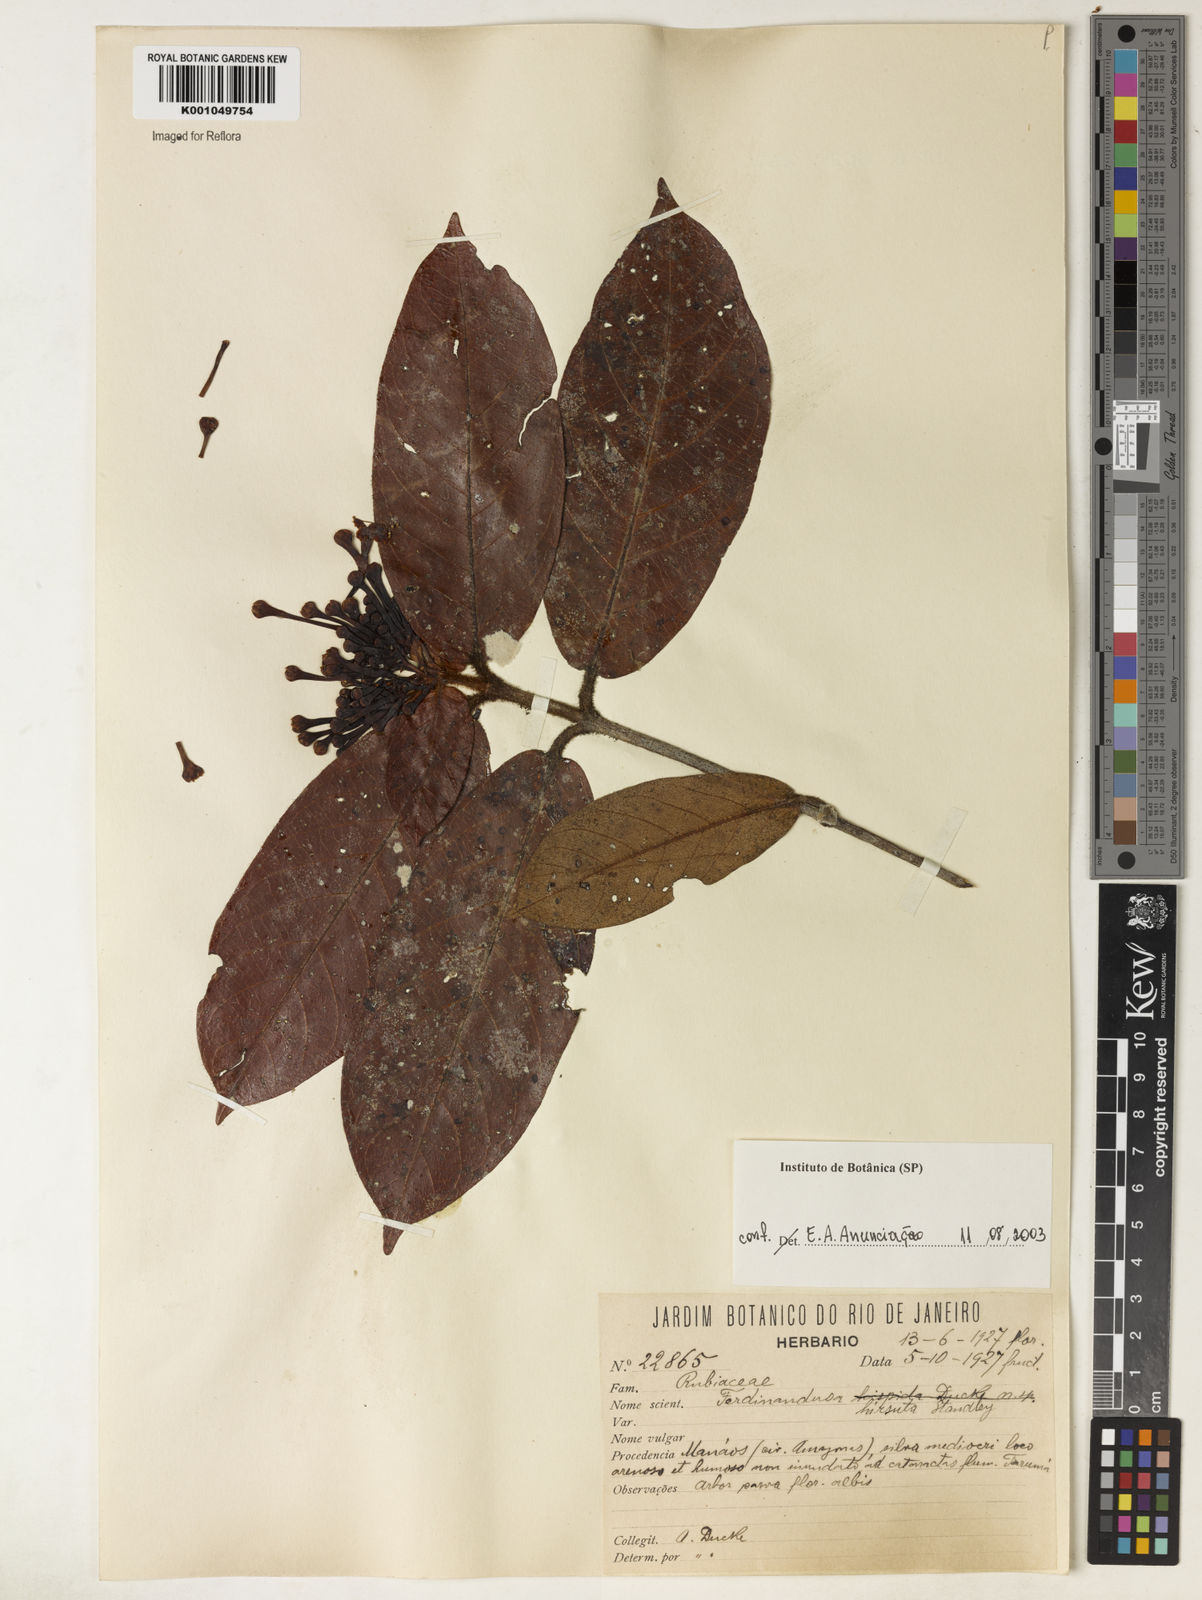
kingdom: Plantae
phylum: Tracheophyta
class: Magnoliopsida
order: Gentianales
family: Rubiaceae
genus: Ferdinandusa
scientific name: Ferdinandusa hirsuta
